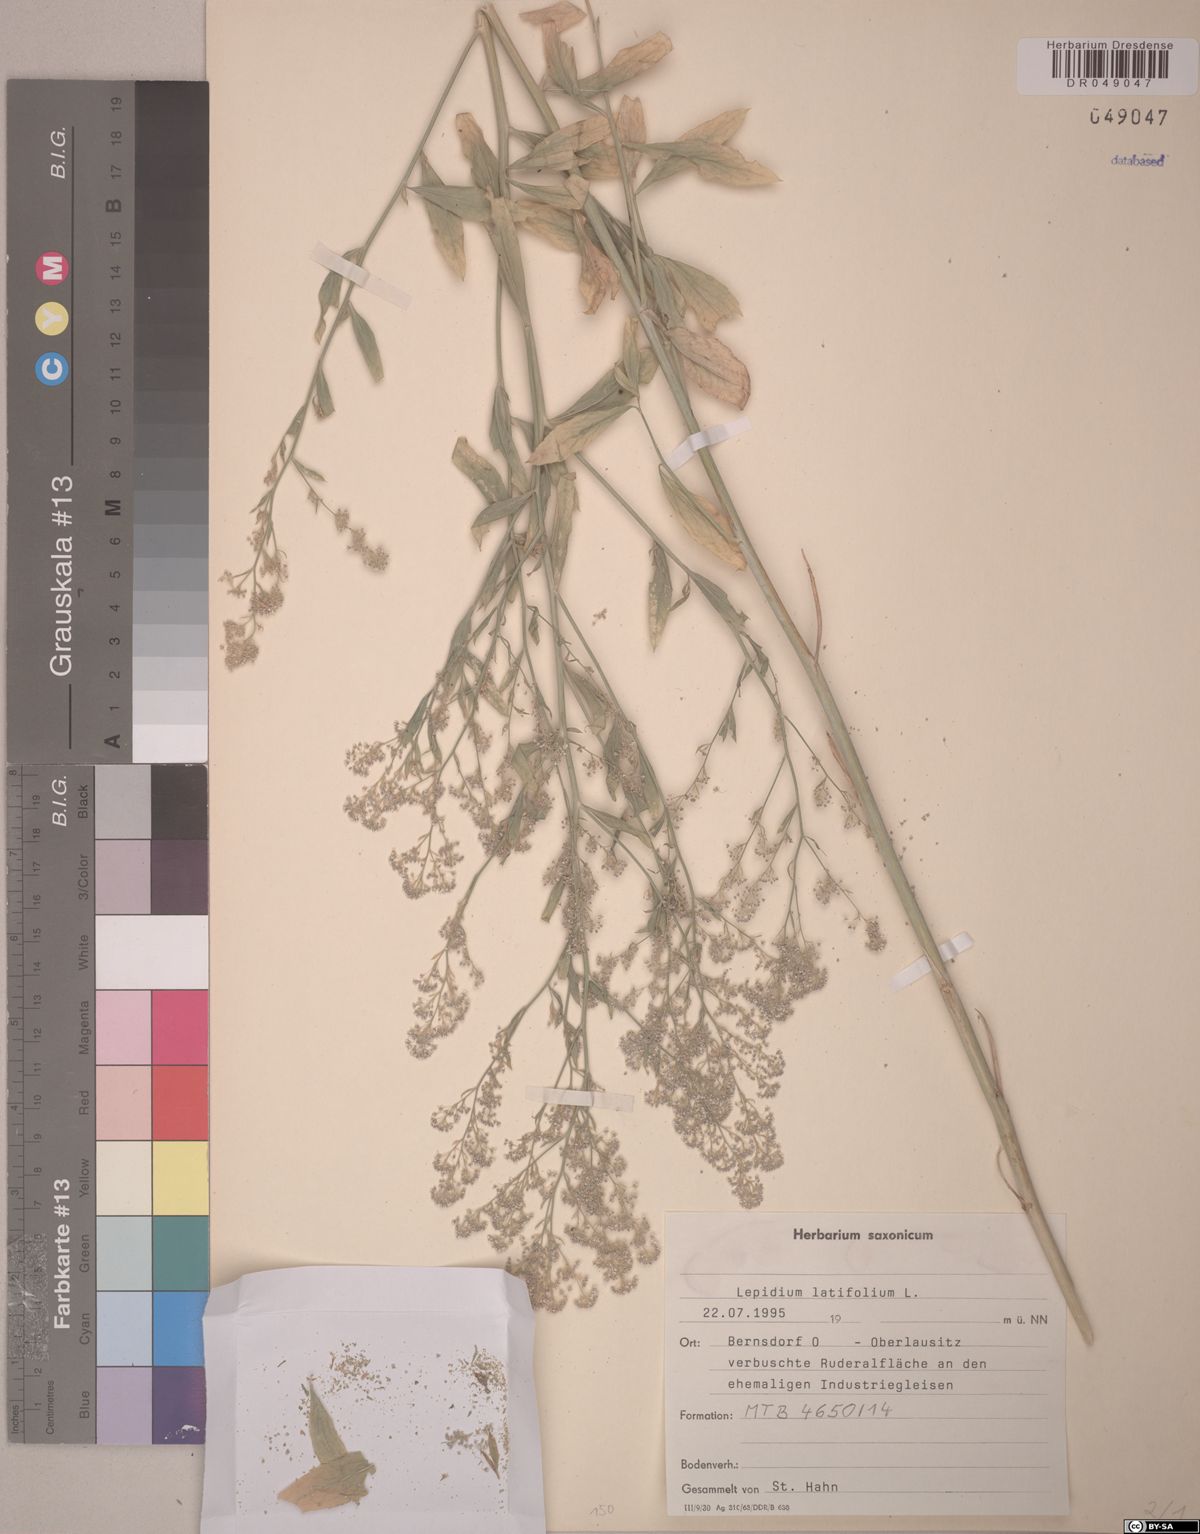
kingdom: Plantae
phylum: Tracheophyta
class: Magnoliopsida
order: Brassicales
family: Brassicaceae
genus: Lepidium
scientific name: Lepidium latifolium
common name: Dittander
